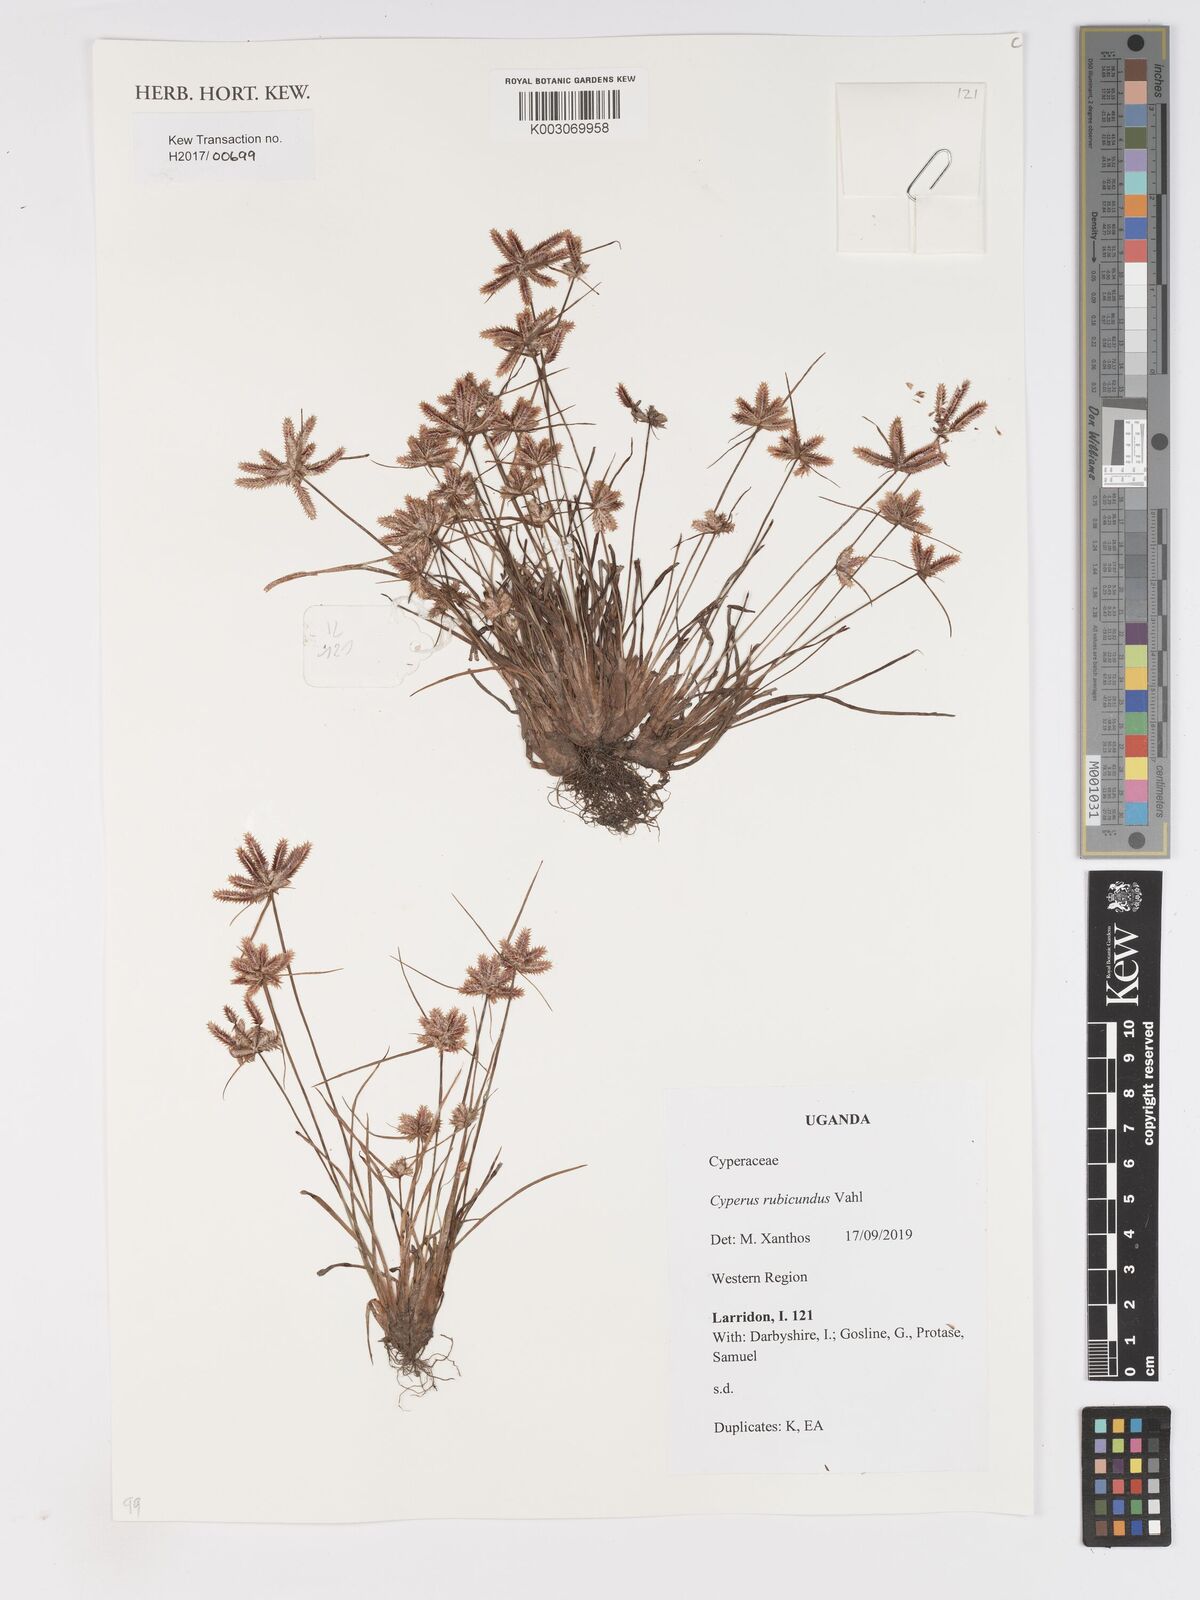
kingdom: Plantae
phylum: Tracheophyta
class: Liliopsida
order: Poales
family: Cyperaceae
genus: Cyperus
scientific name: Cyperus rubicundus
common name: Coco-grass
